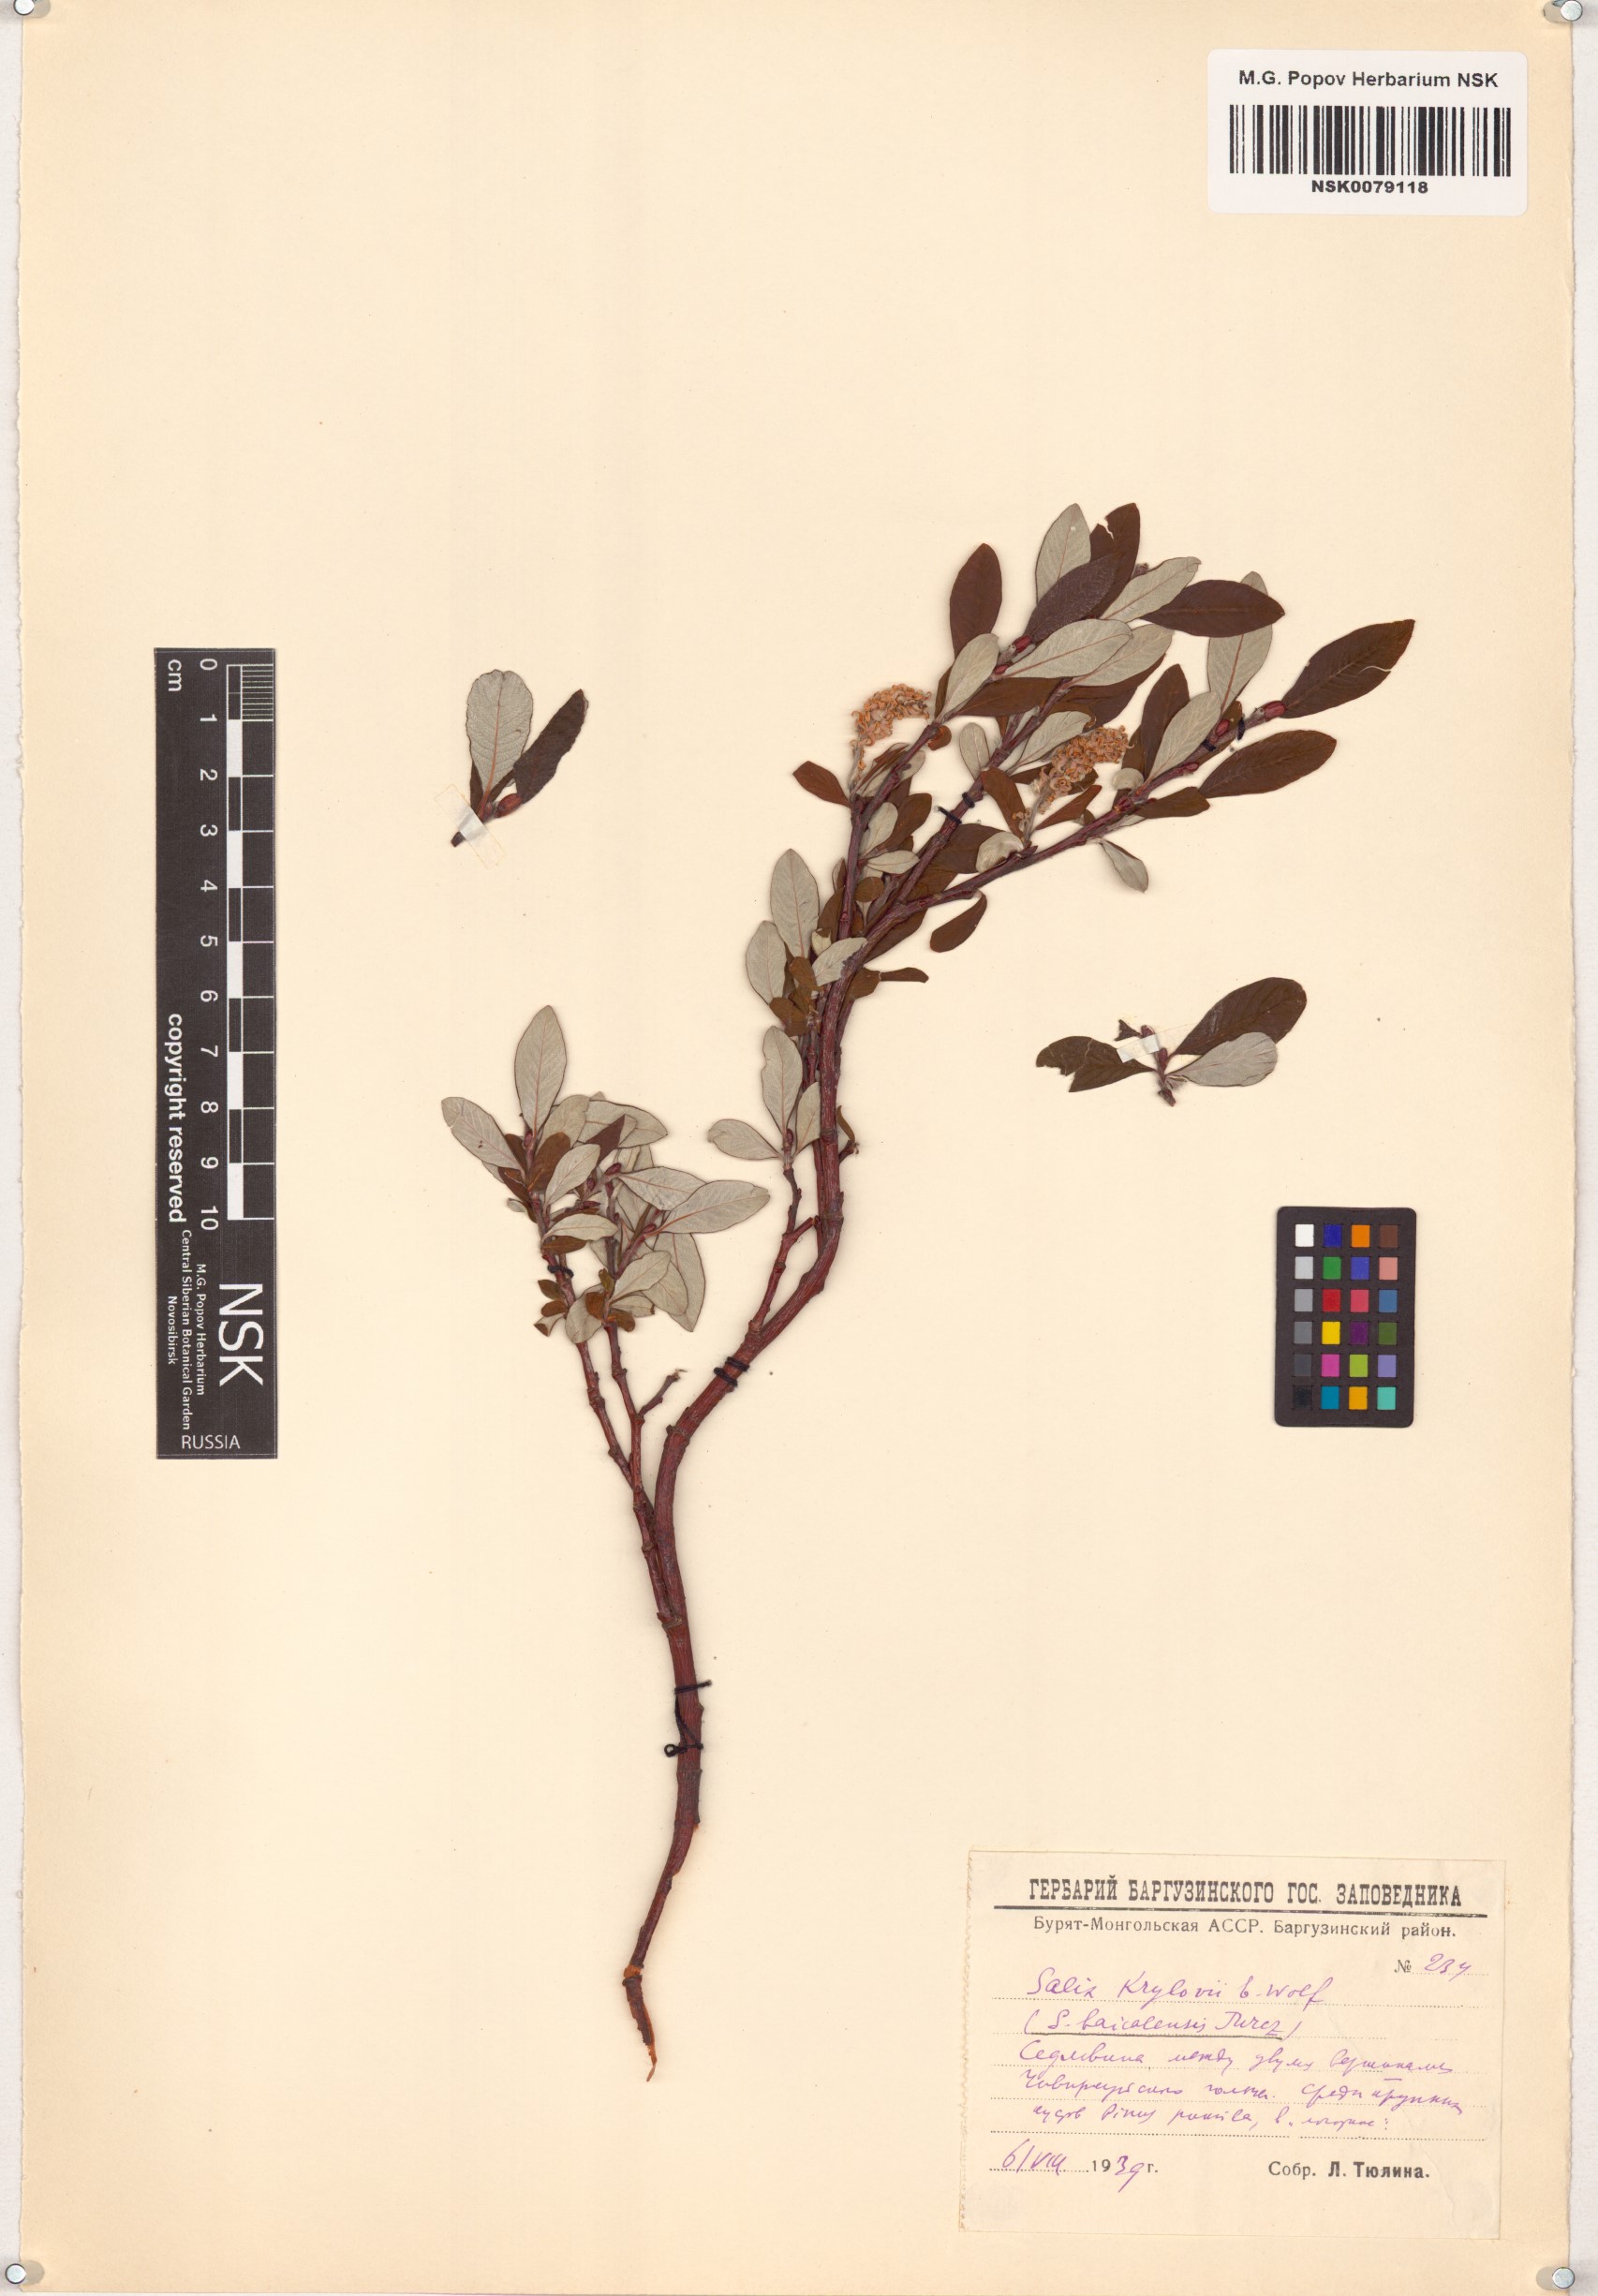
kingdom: Plantae
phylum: Tracheophyta
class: Magnoliopsida
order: Malpighiales
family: Salicaceae
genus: Salix
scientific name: Salix krylovii
